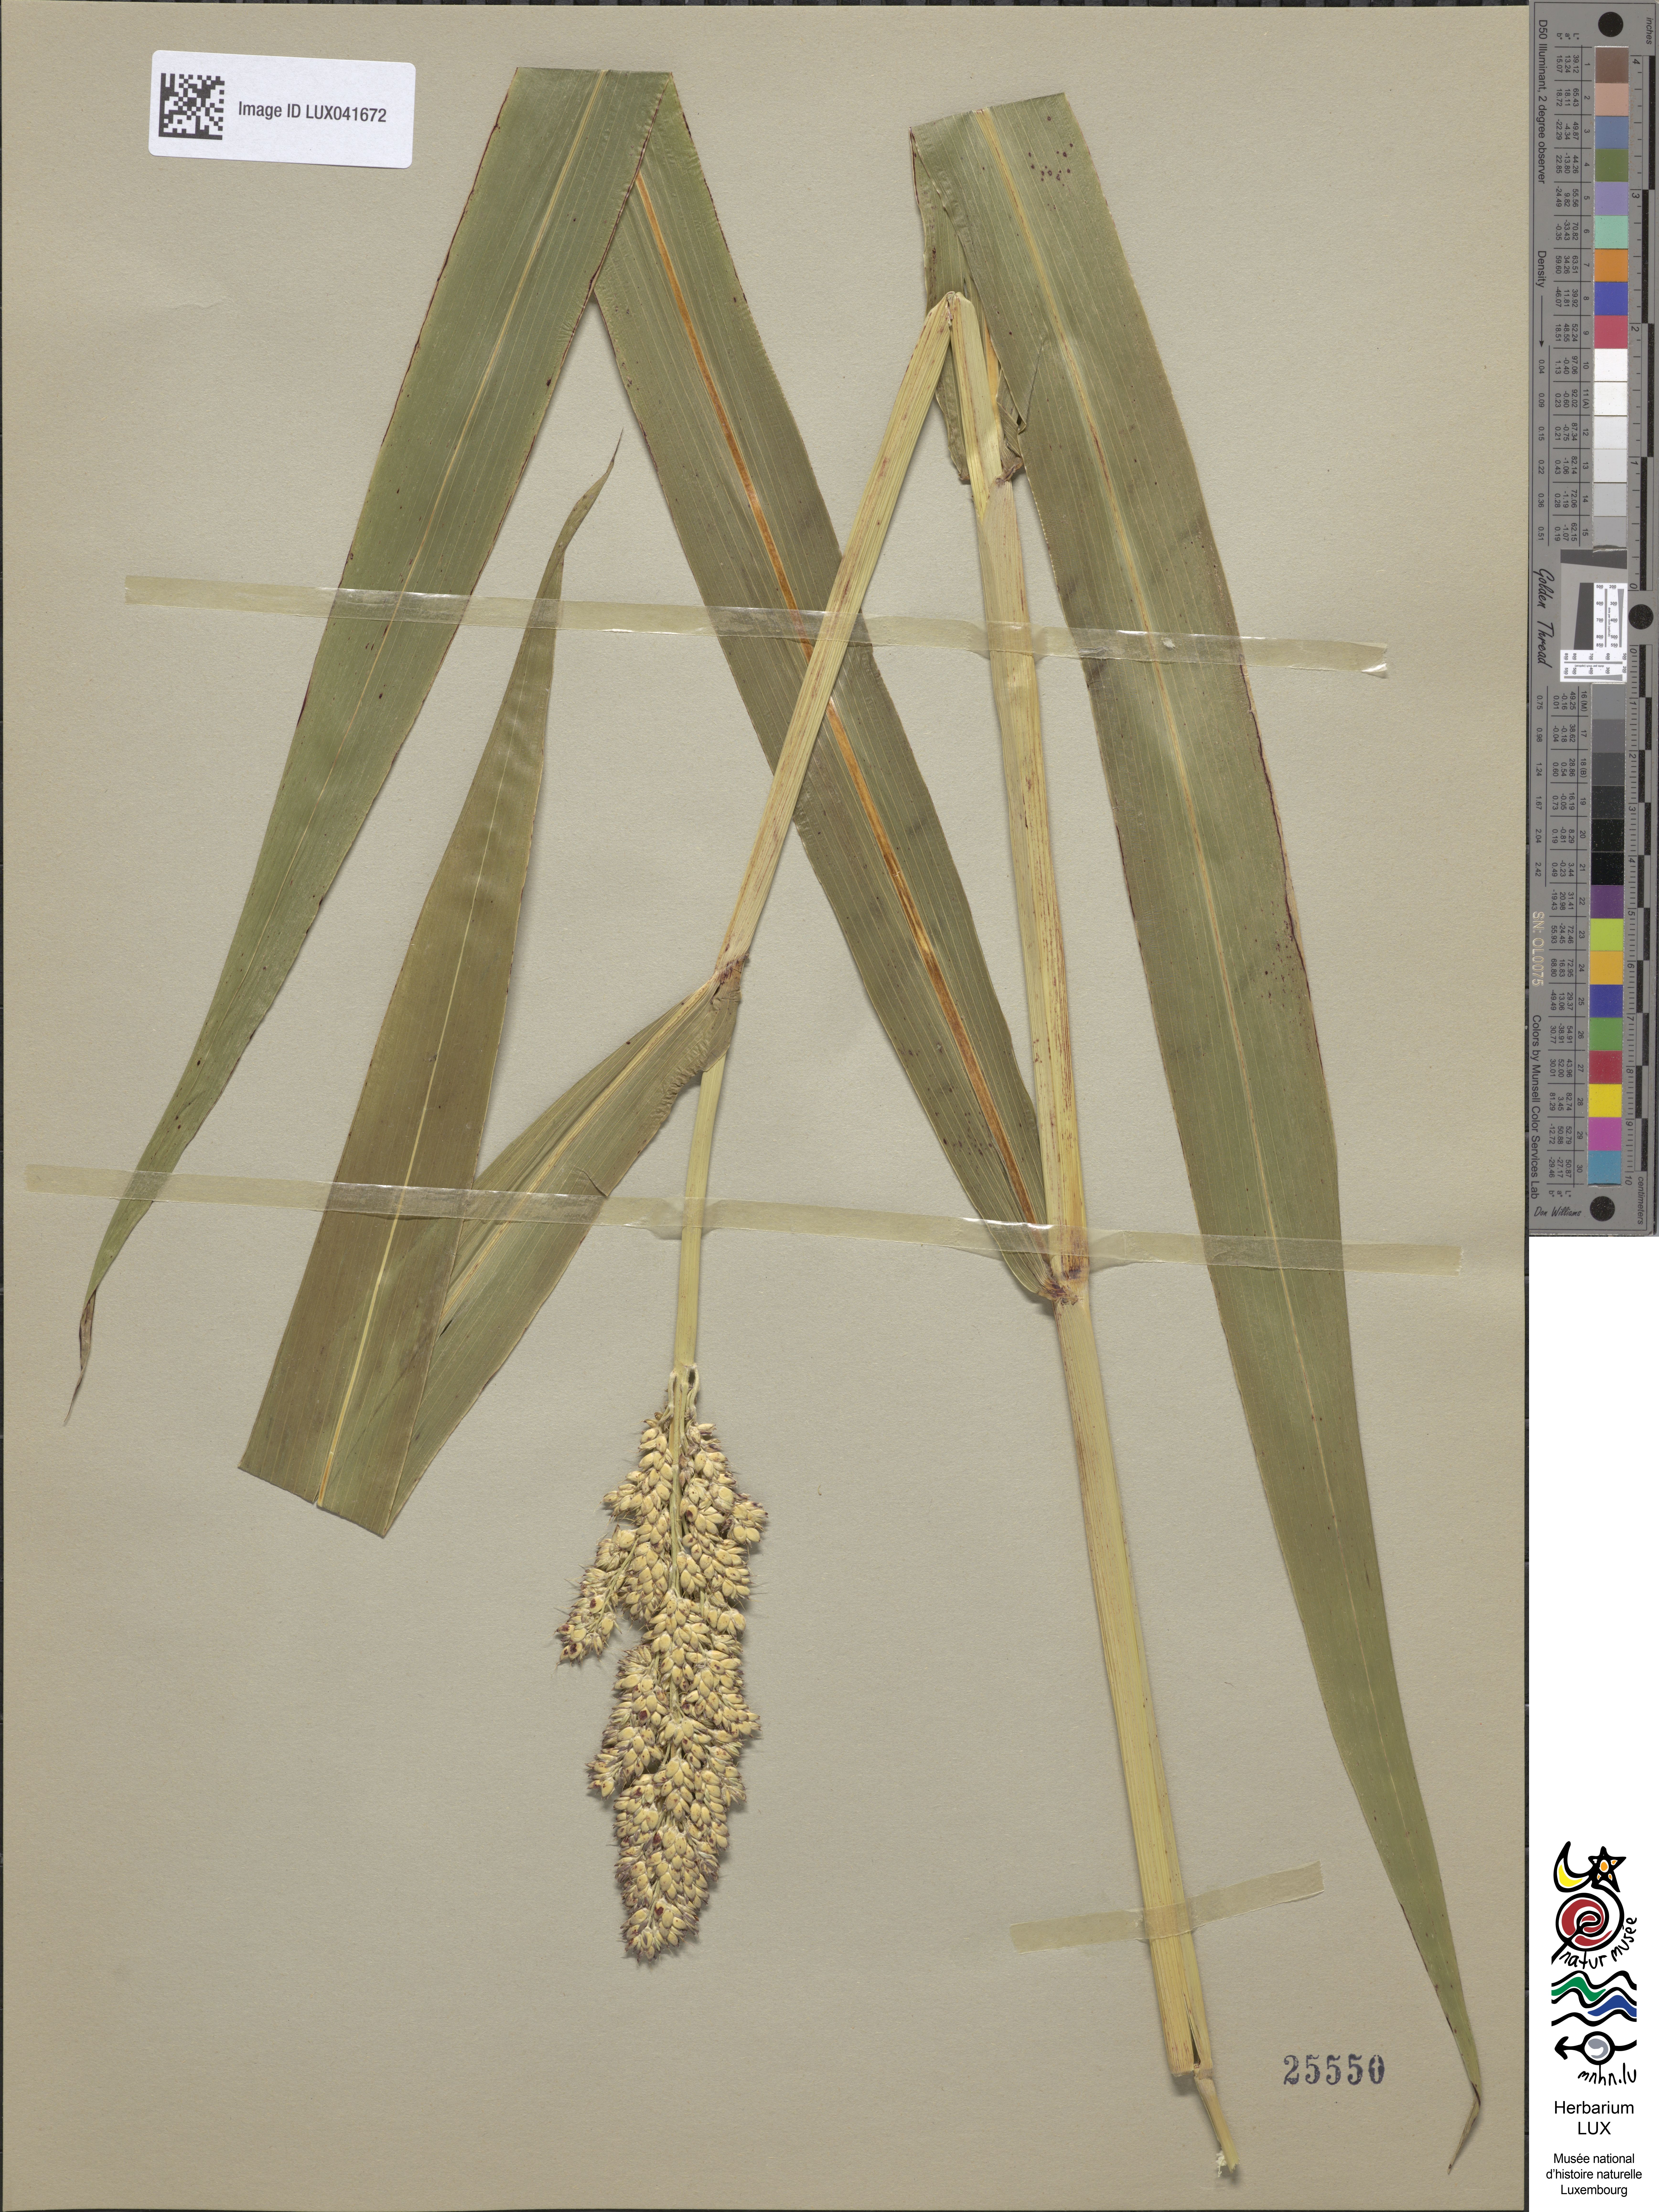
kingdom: Plantae
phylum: Tracheophyta
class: Liliopsida
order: Poales
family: Poaceae
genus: Sorghum
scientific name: Sorghum bicolor
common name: Sorghum
